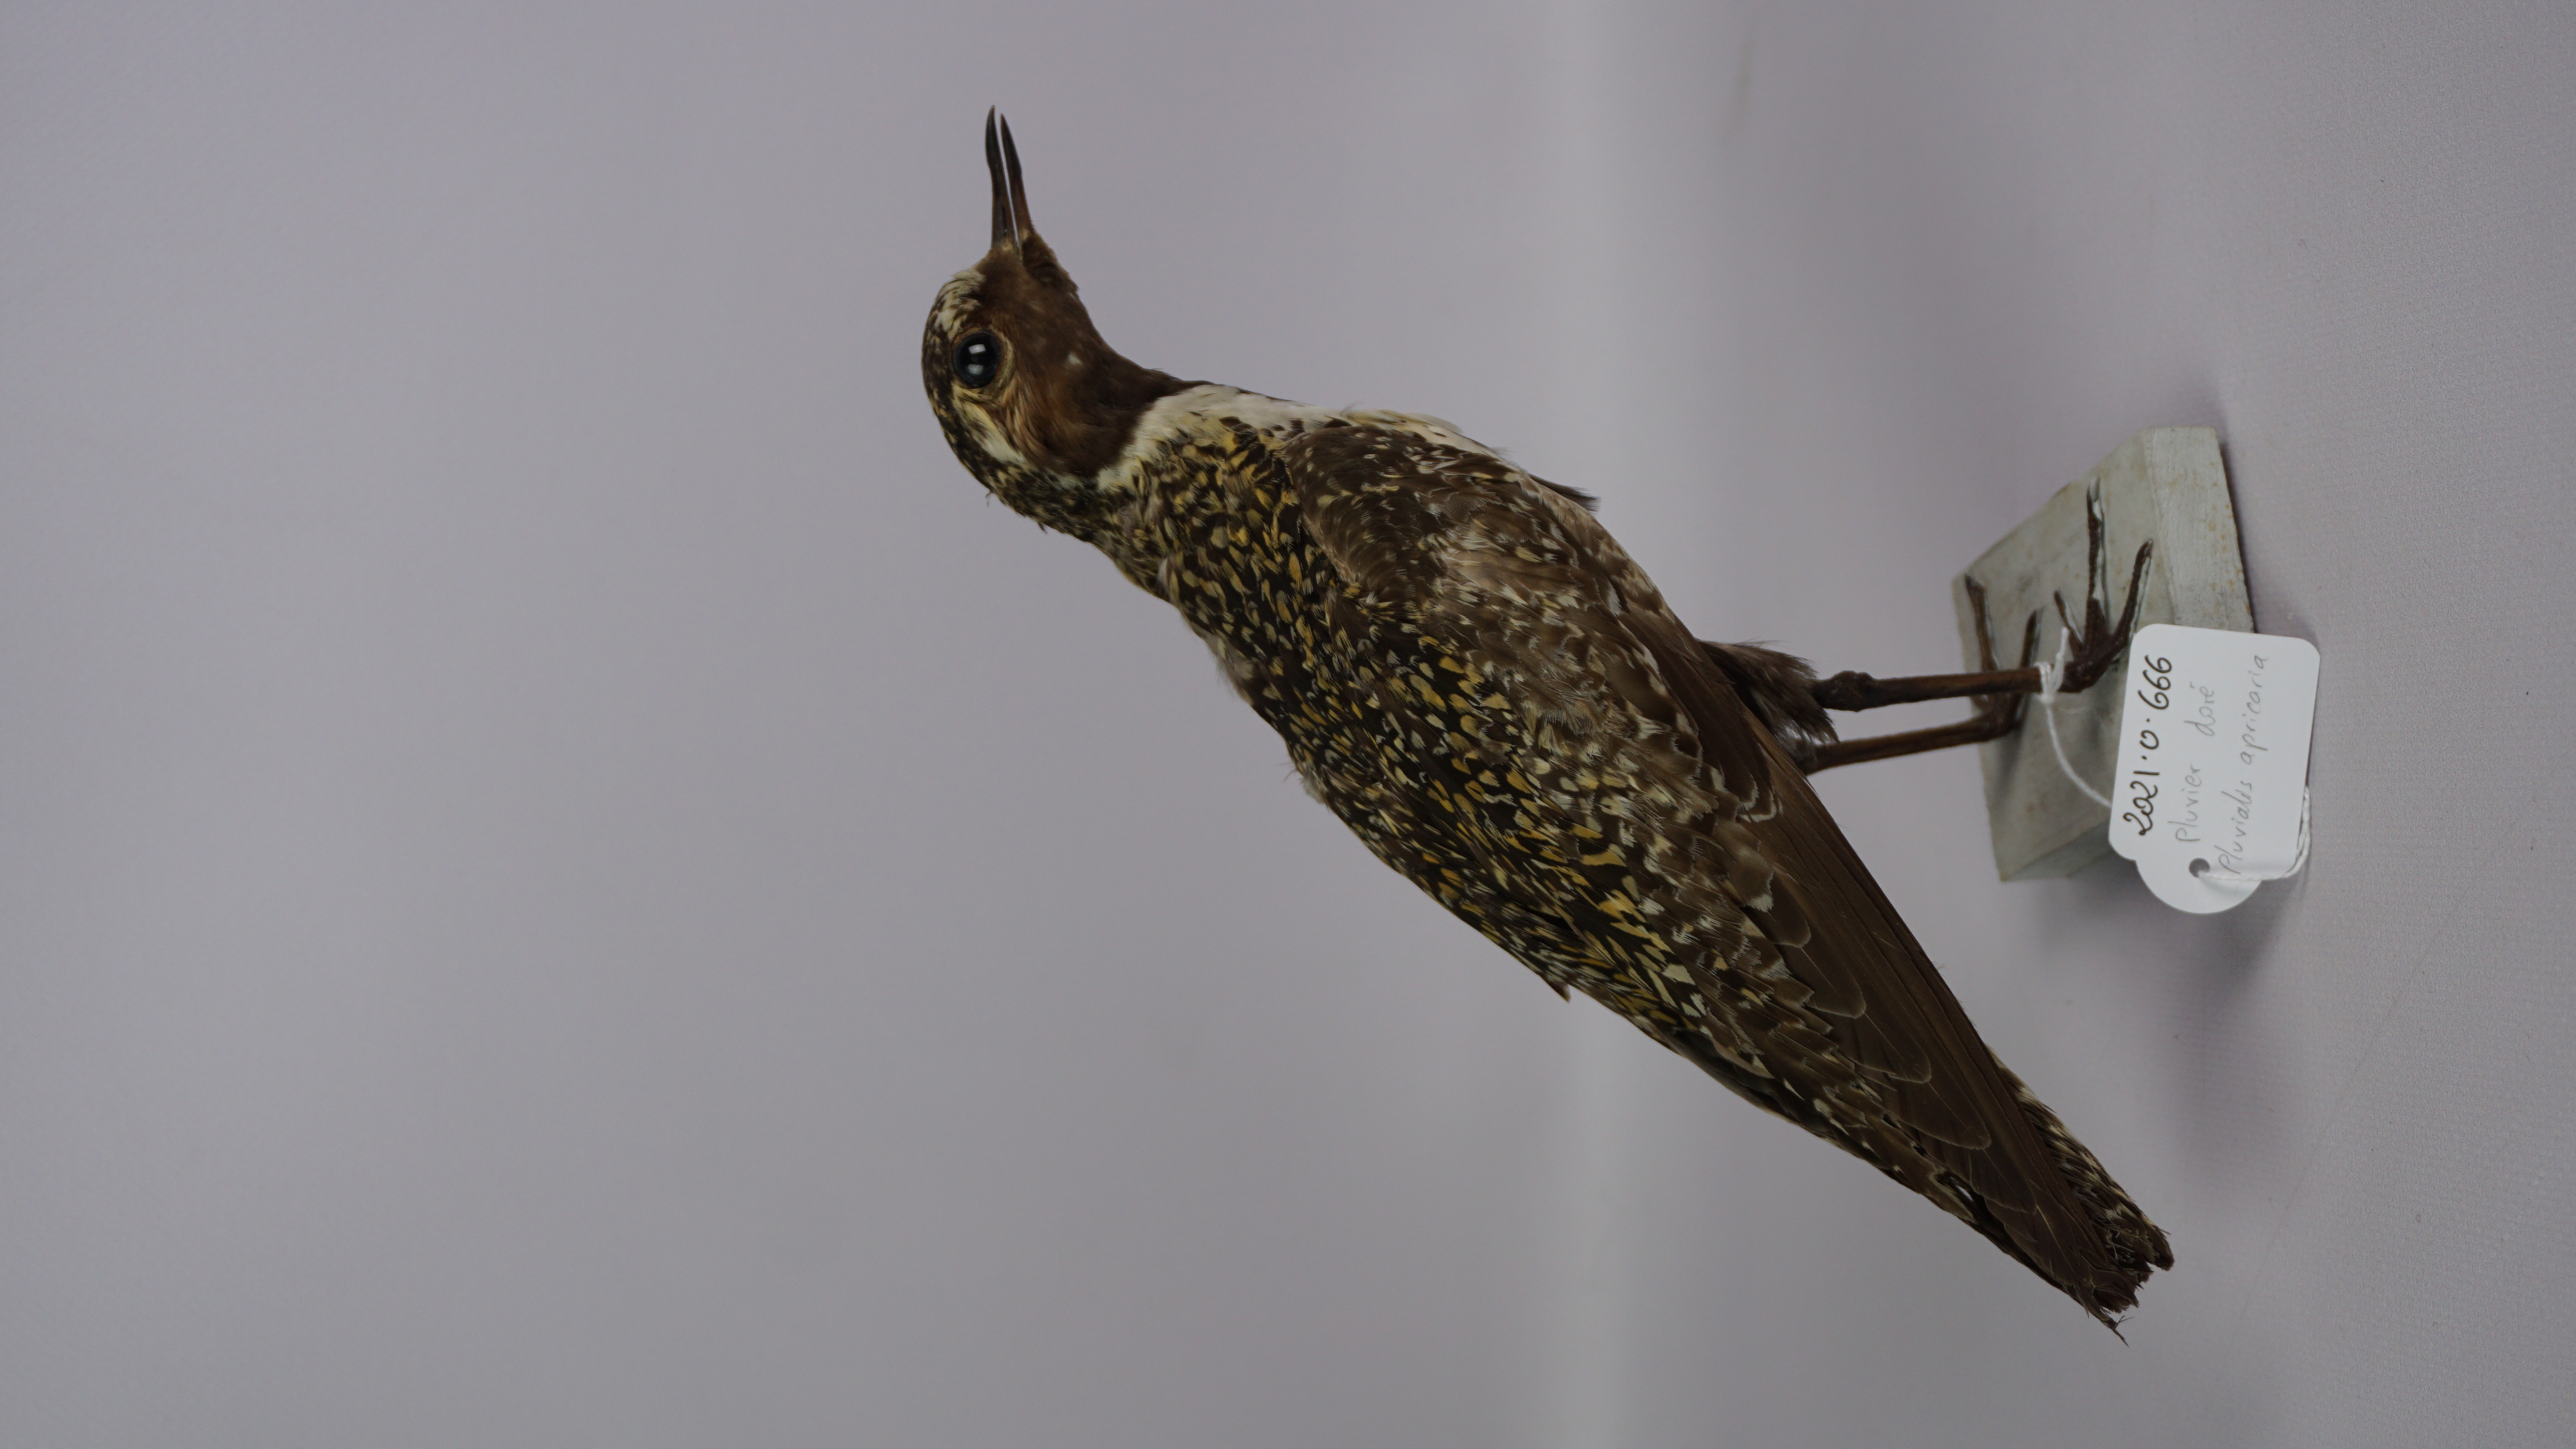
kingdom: Animalia
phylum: Chordata
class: Aves
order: Charadriiformes
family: Charadriidae
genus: Pluvialis
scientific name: Pluvialis apricaria
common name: European golden plover
